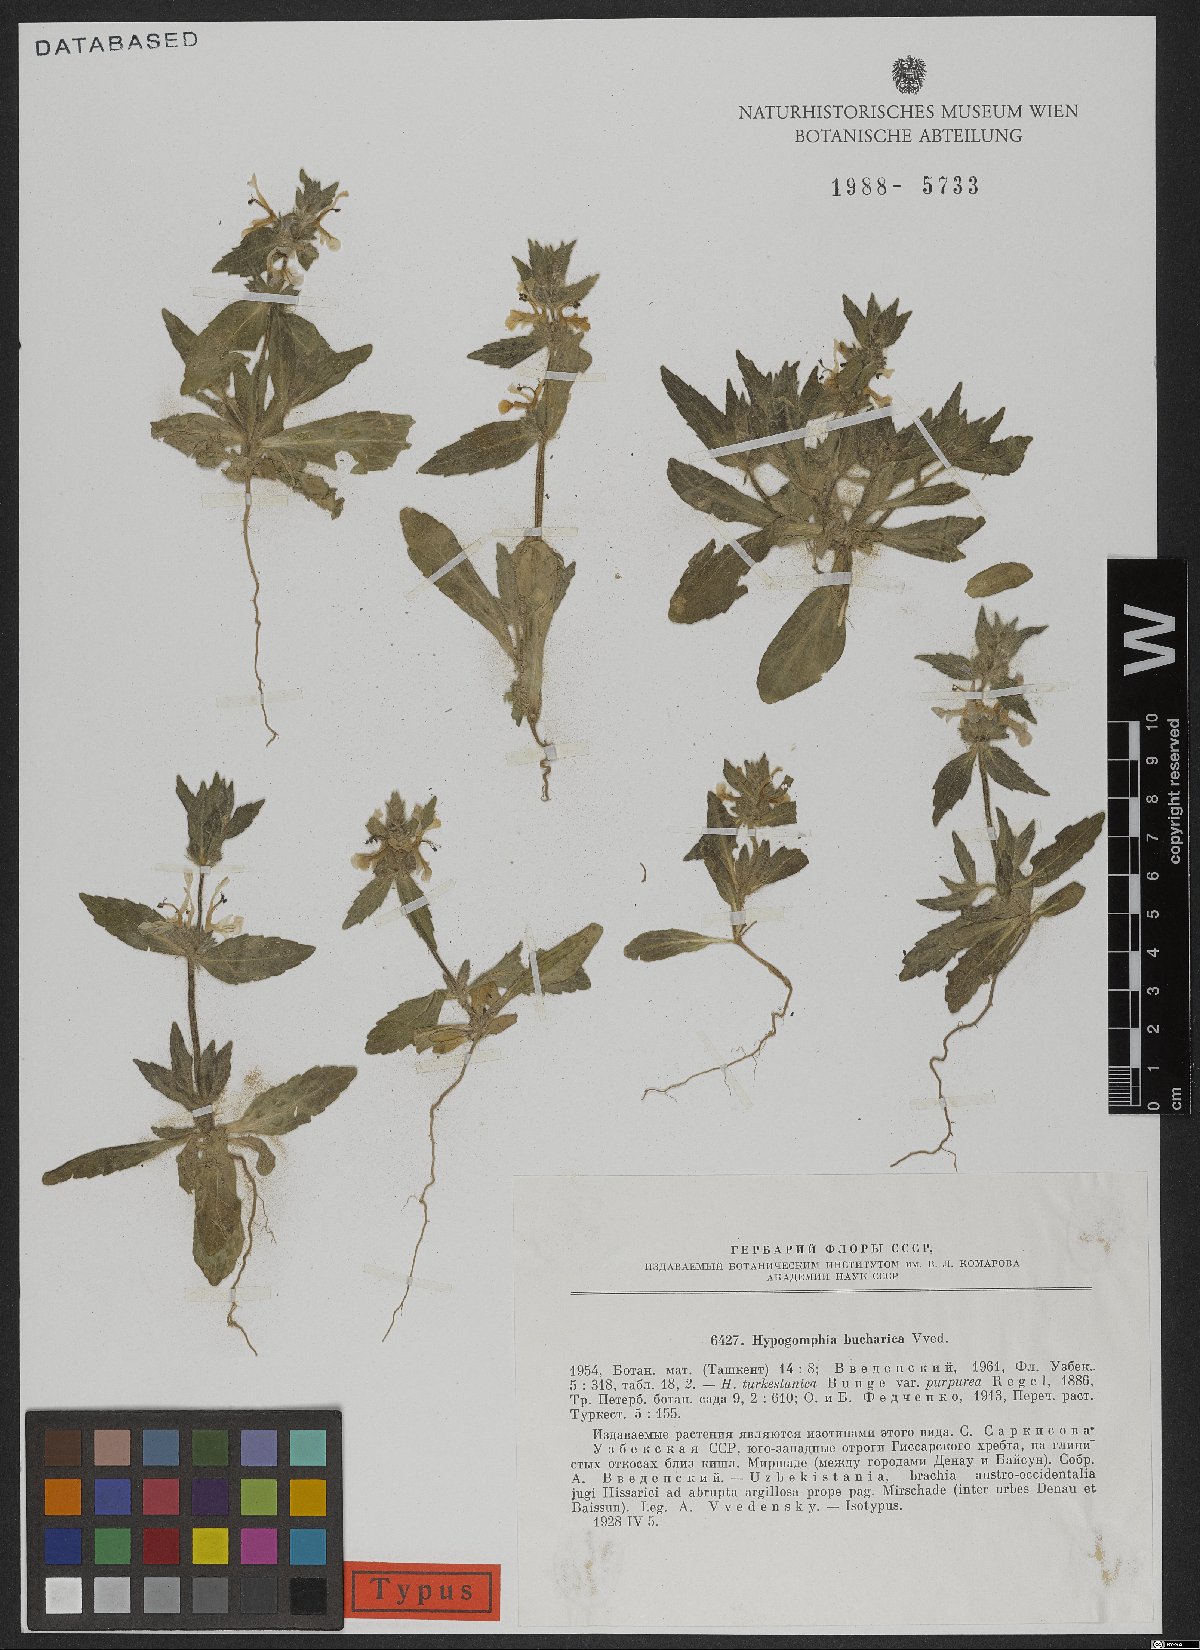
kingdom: Plantae
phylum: Tracheophyta
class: Magnoliopsida
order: Lamiales
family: Lamiaceae
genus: Hypogomphia
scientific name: Hypogomphia bucharica
